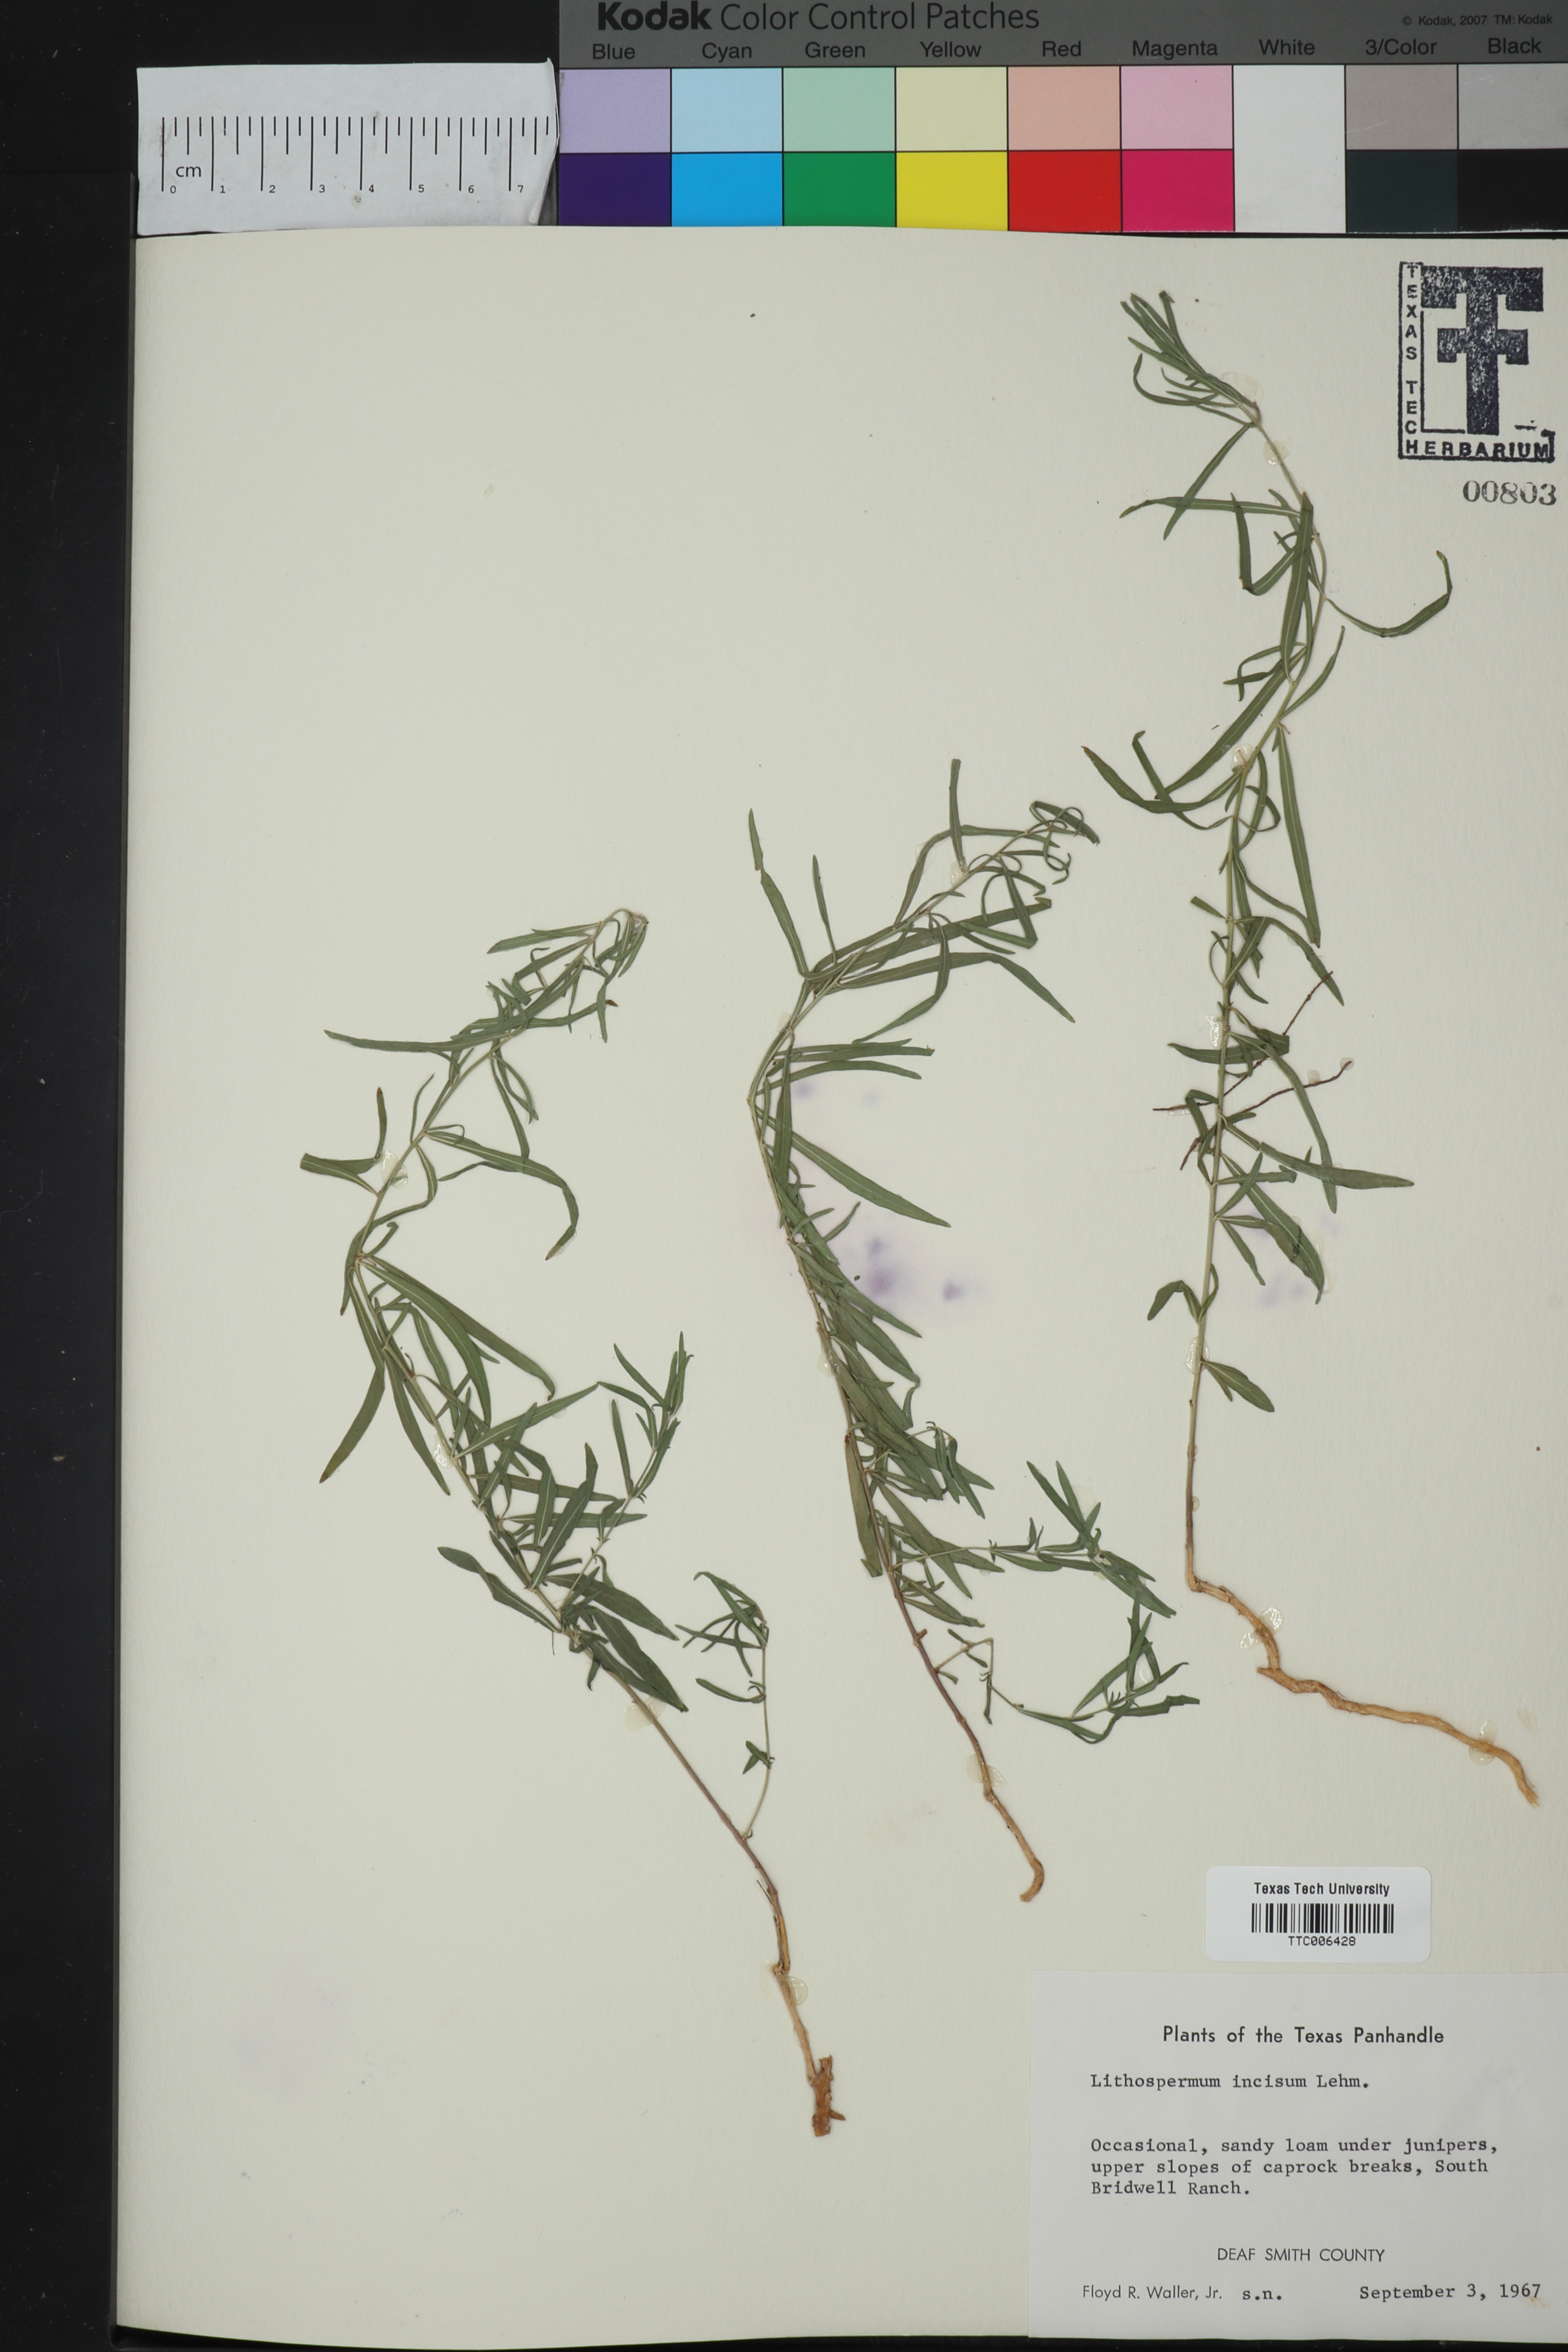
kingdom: Plantae
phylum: Tracheophyta
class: Magnoliopsida
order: Boraginales
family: Boraginaceae
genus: Lithospermum
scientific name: Lithospermum incisum
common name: Fringed gromwell
